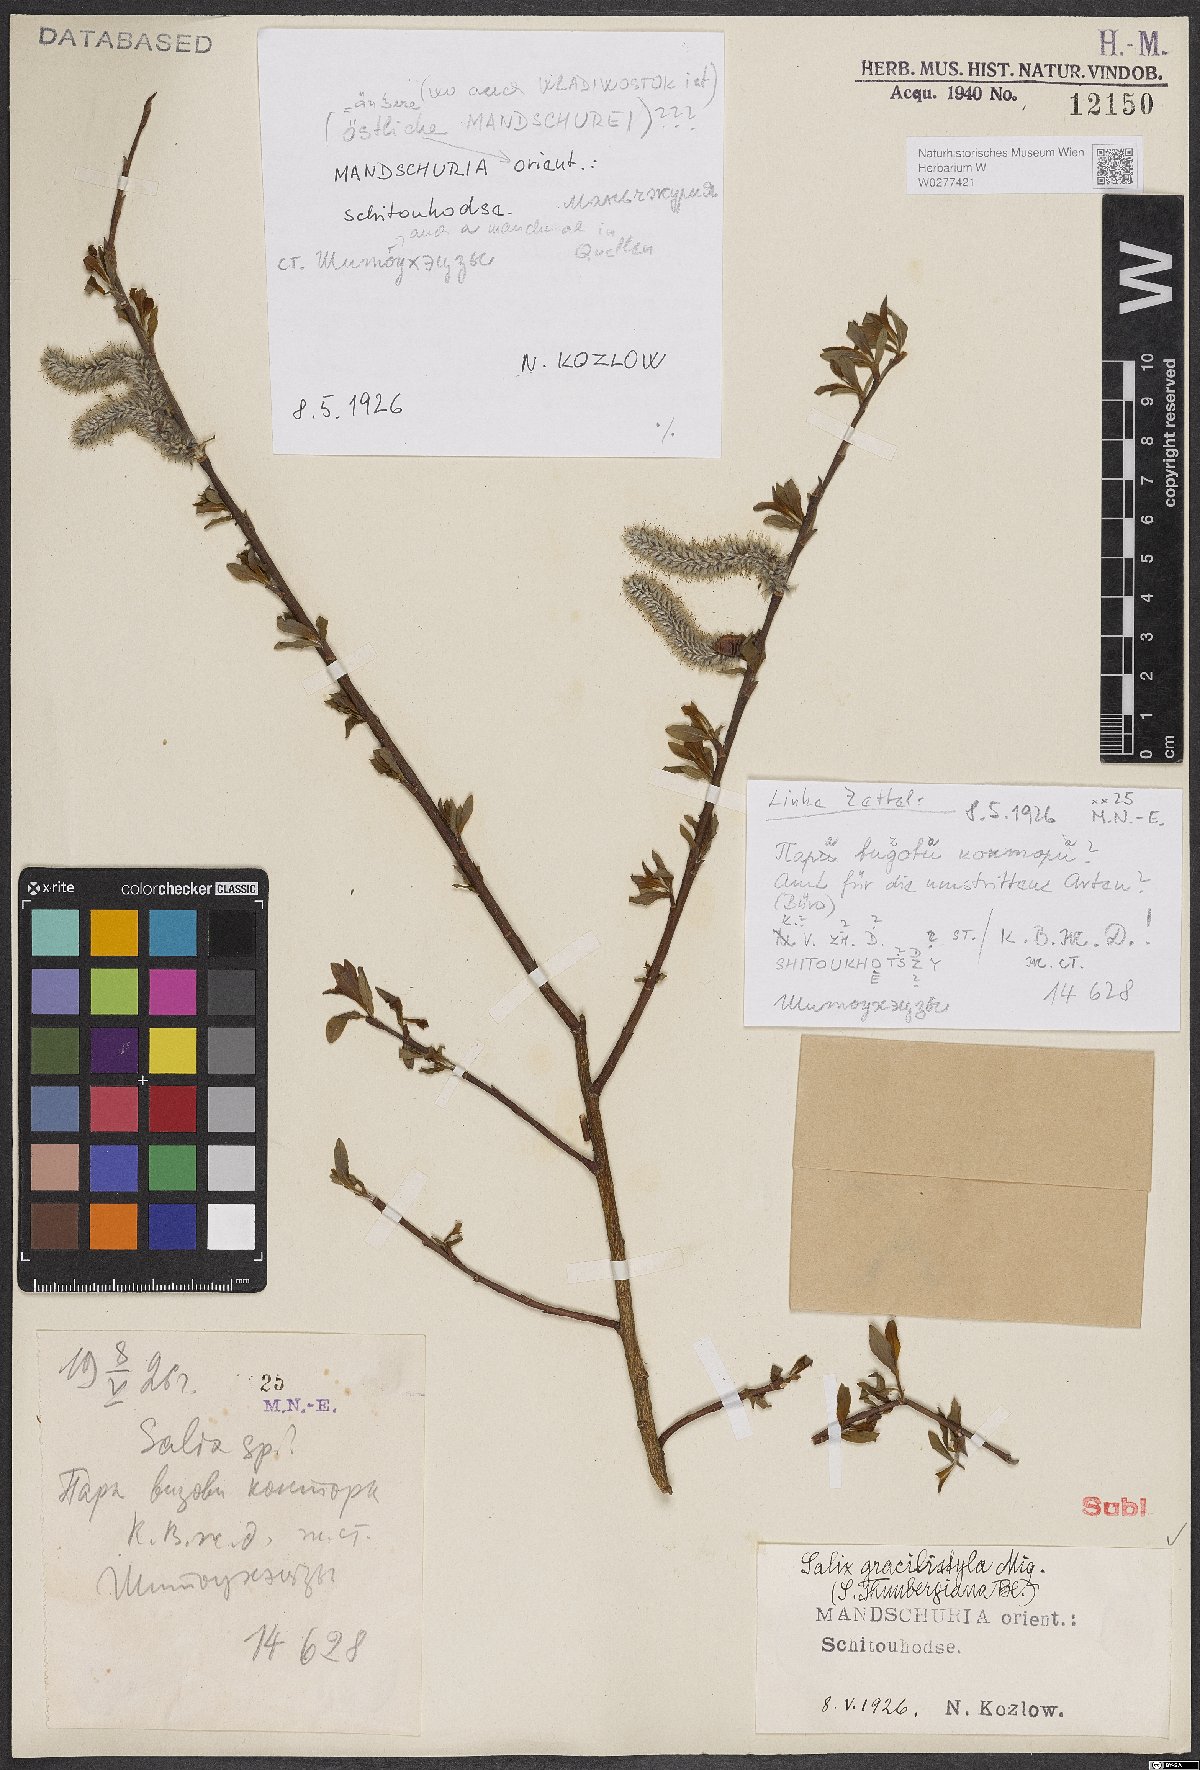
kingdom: Plantae
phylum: Tracheophyta
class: Magnoliopsida
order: Malpighiales
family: Salicaceae
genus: Salix
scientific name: Salix gracilistyla
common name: Rose-gold pussy willow
